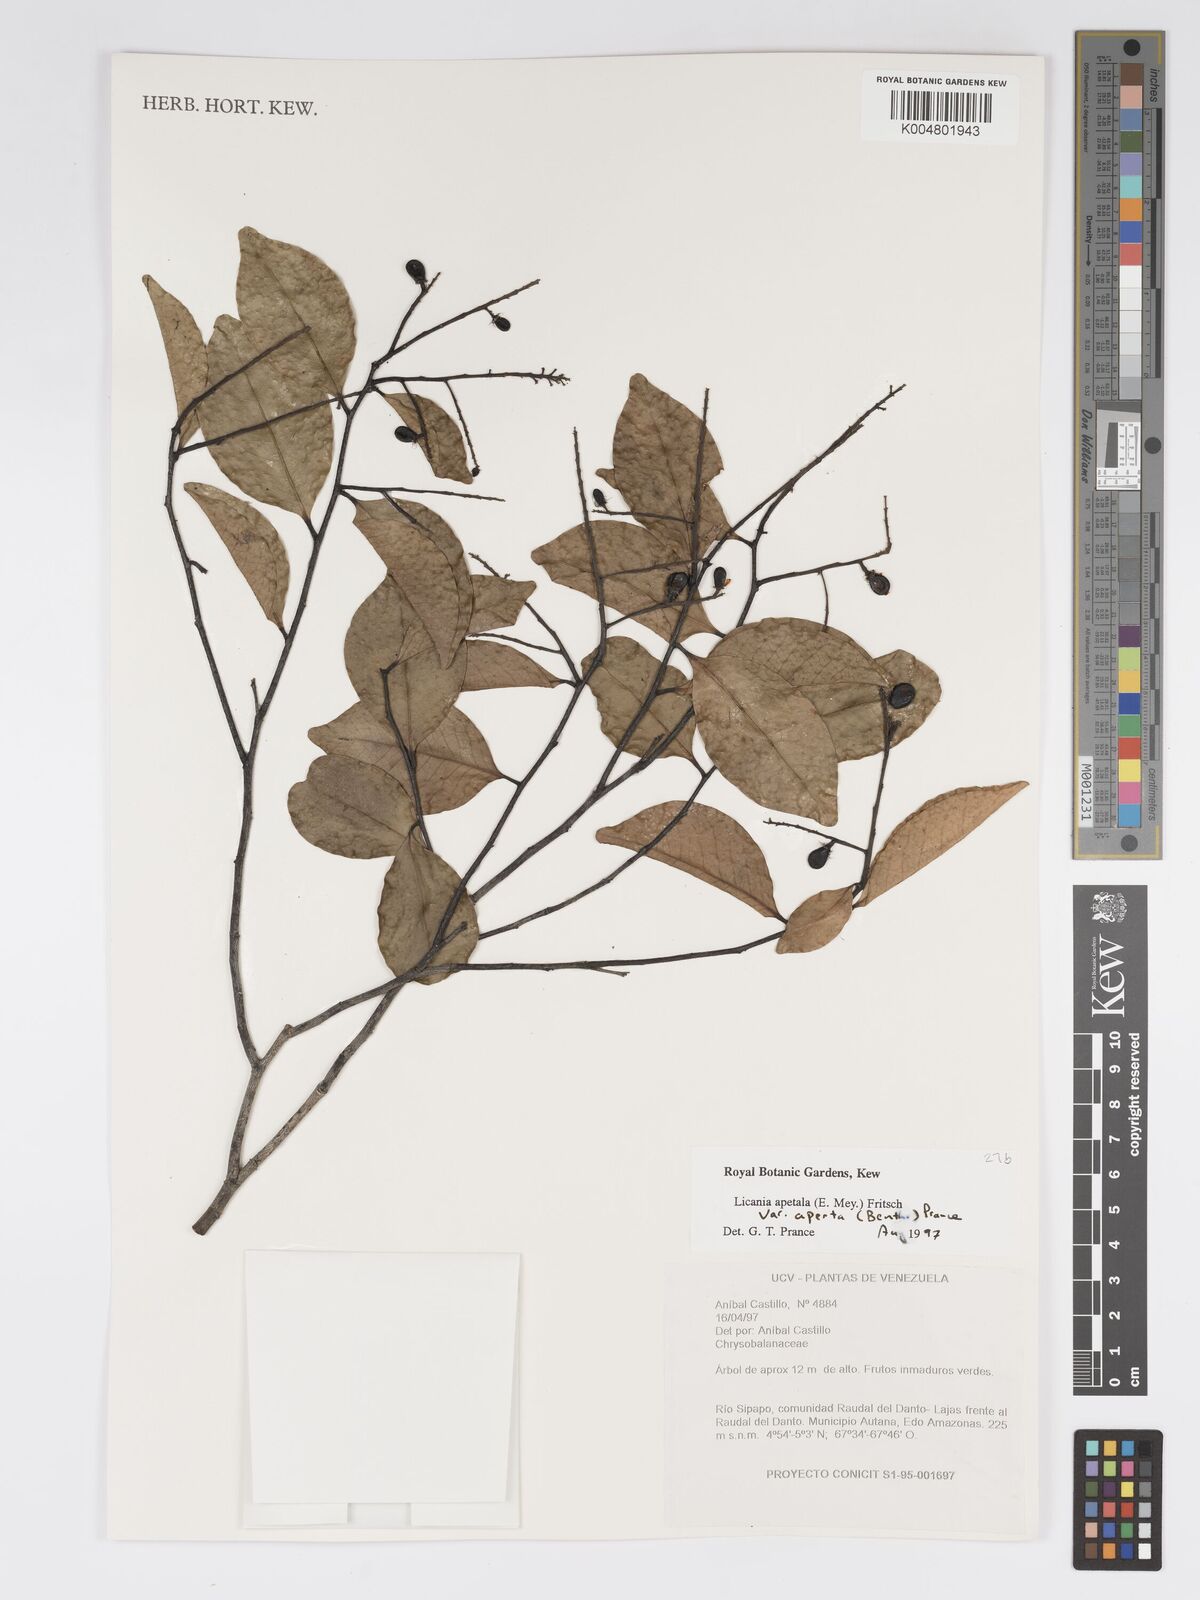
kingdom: Plantae
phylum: Tracheophyta
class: Magnoliopsida
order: Malpighiales
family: Chrysobalanaceae
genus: Leptobalanus
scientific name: Leptobalanus apetalus
